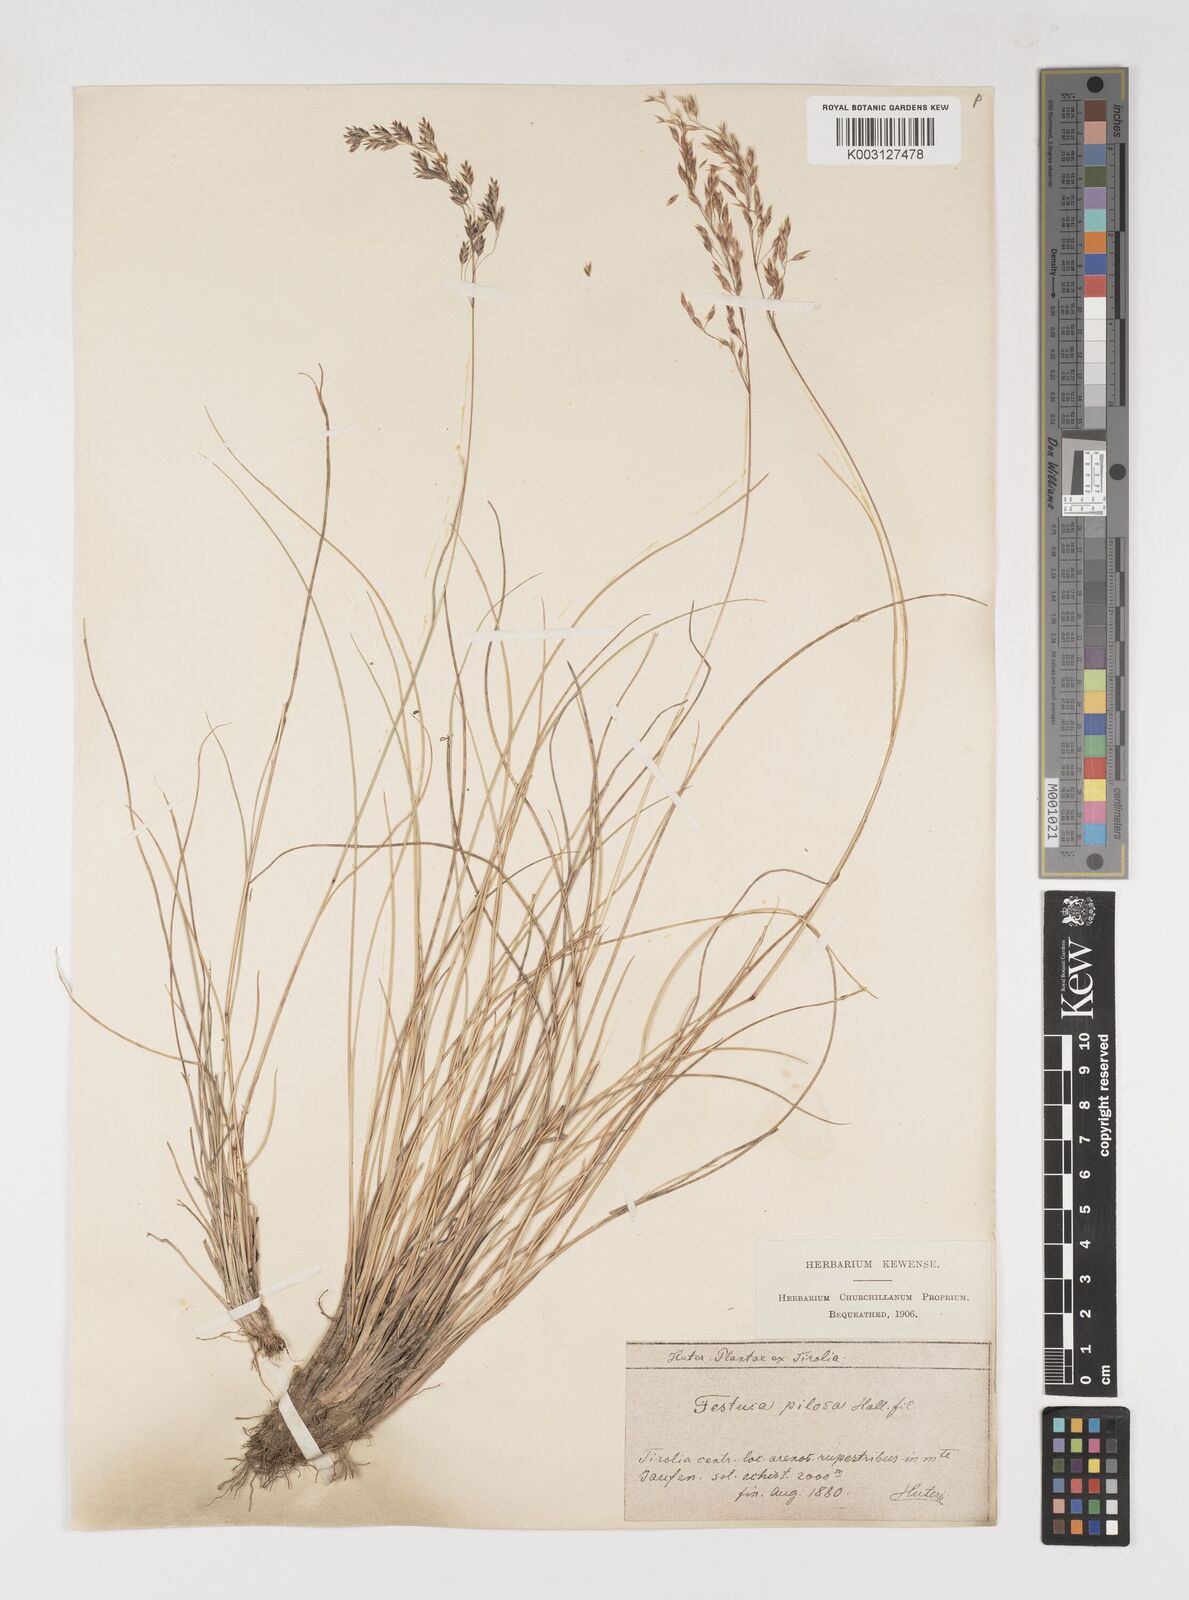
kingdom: Plantae
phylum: Tracheophyta
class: Liliopsida
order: Poales
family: Poaceae
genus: Bellardiochloa
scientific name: Bellardiochloa variegata
